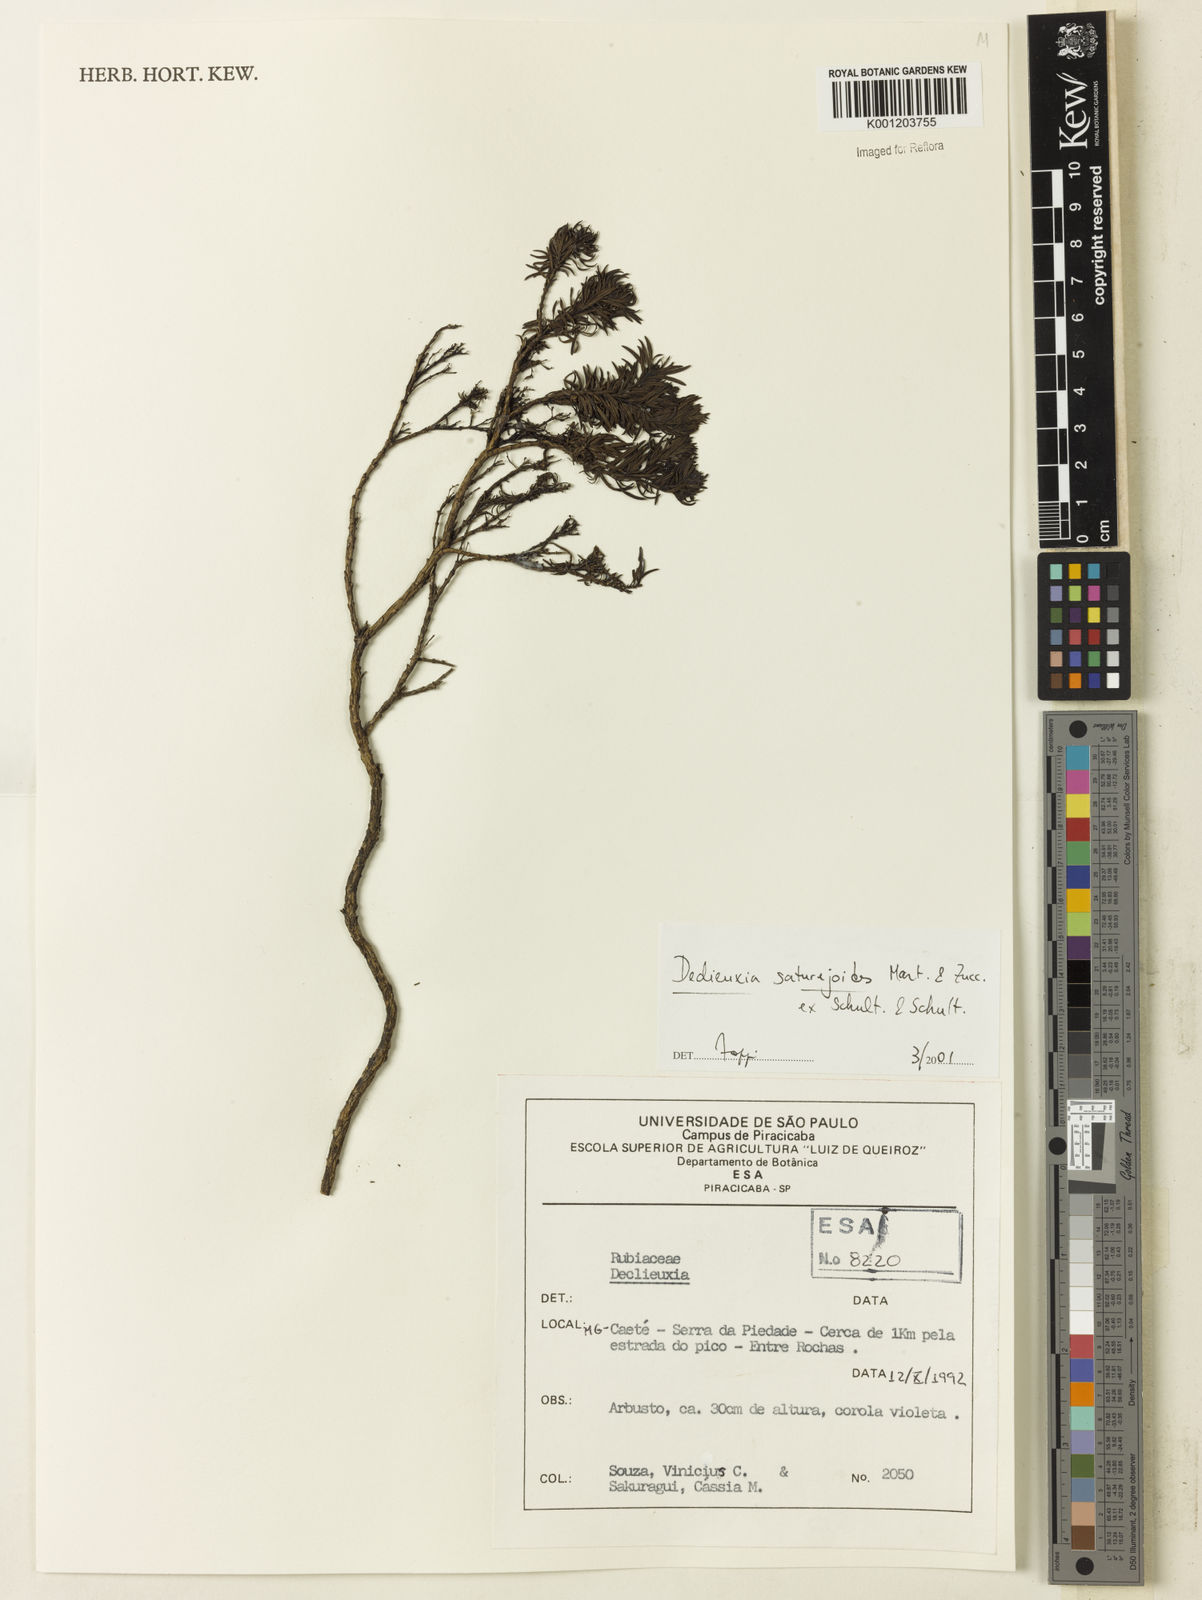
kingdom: Plantae
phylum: Tracheophyta
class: Magnoliopsida
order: Gentianales
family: Rubiaceae
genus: Declieuxia
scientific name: Declieuxia
